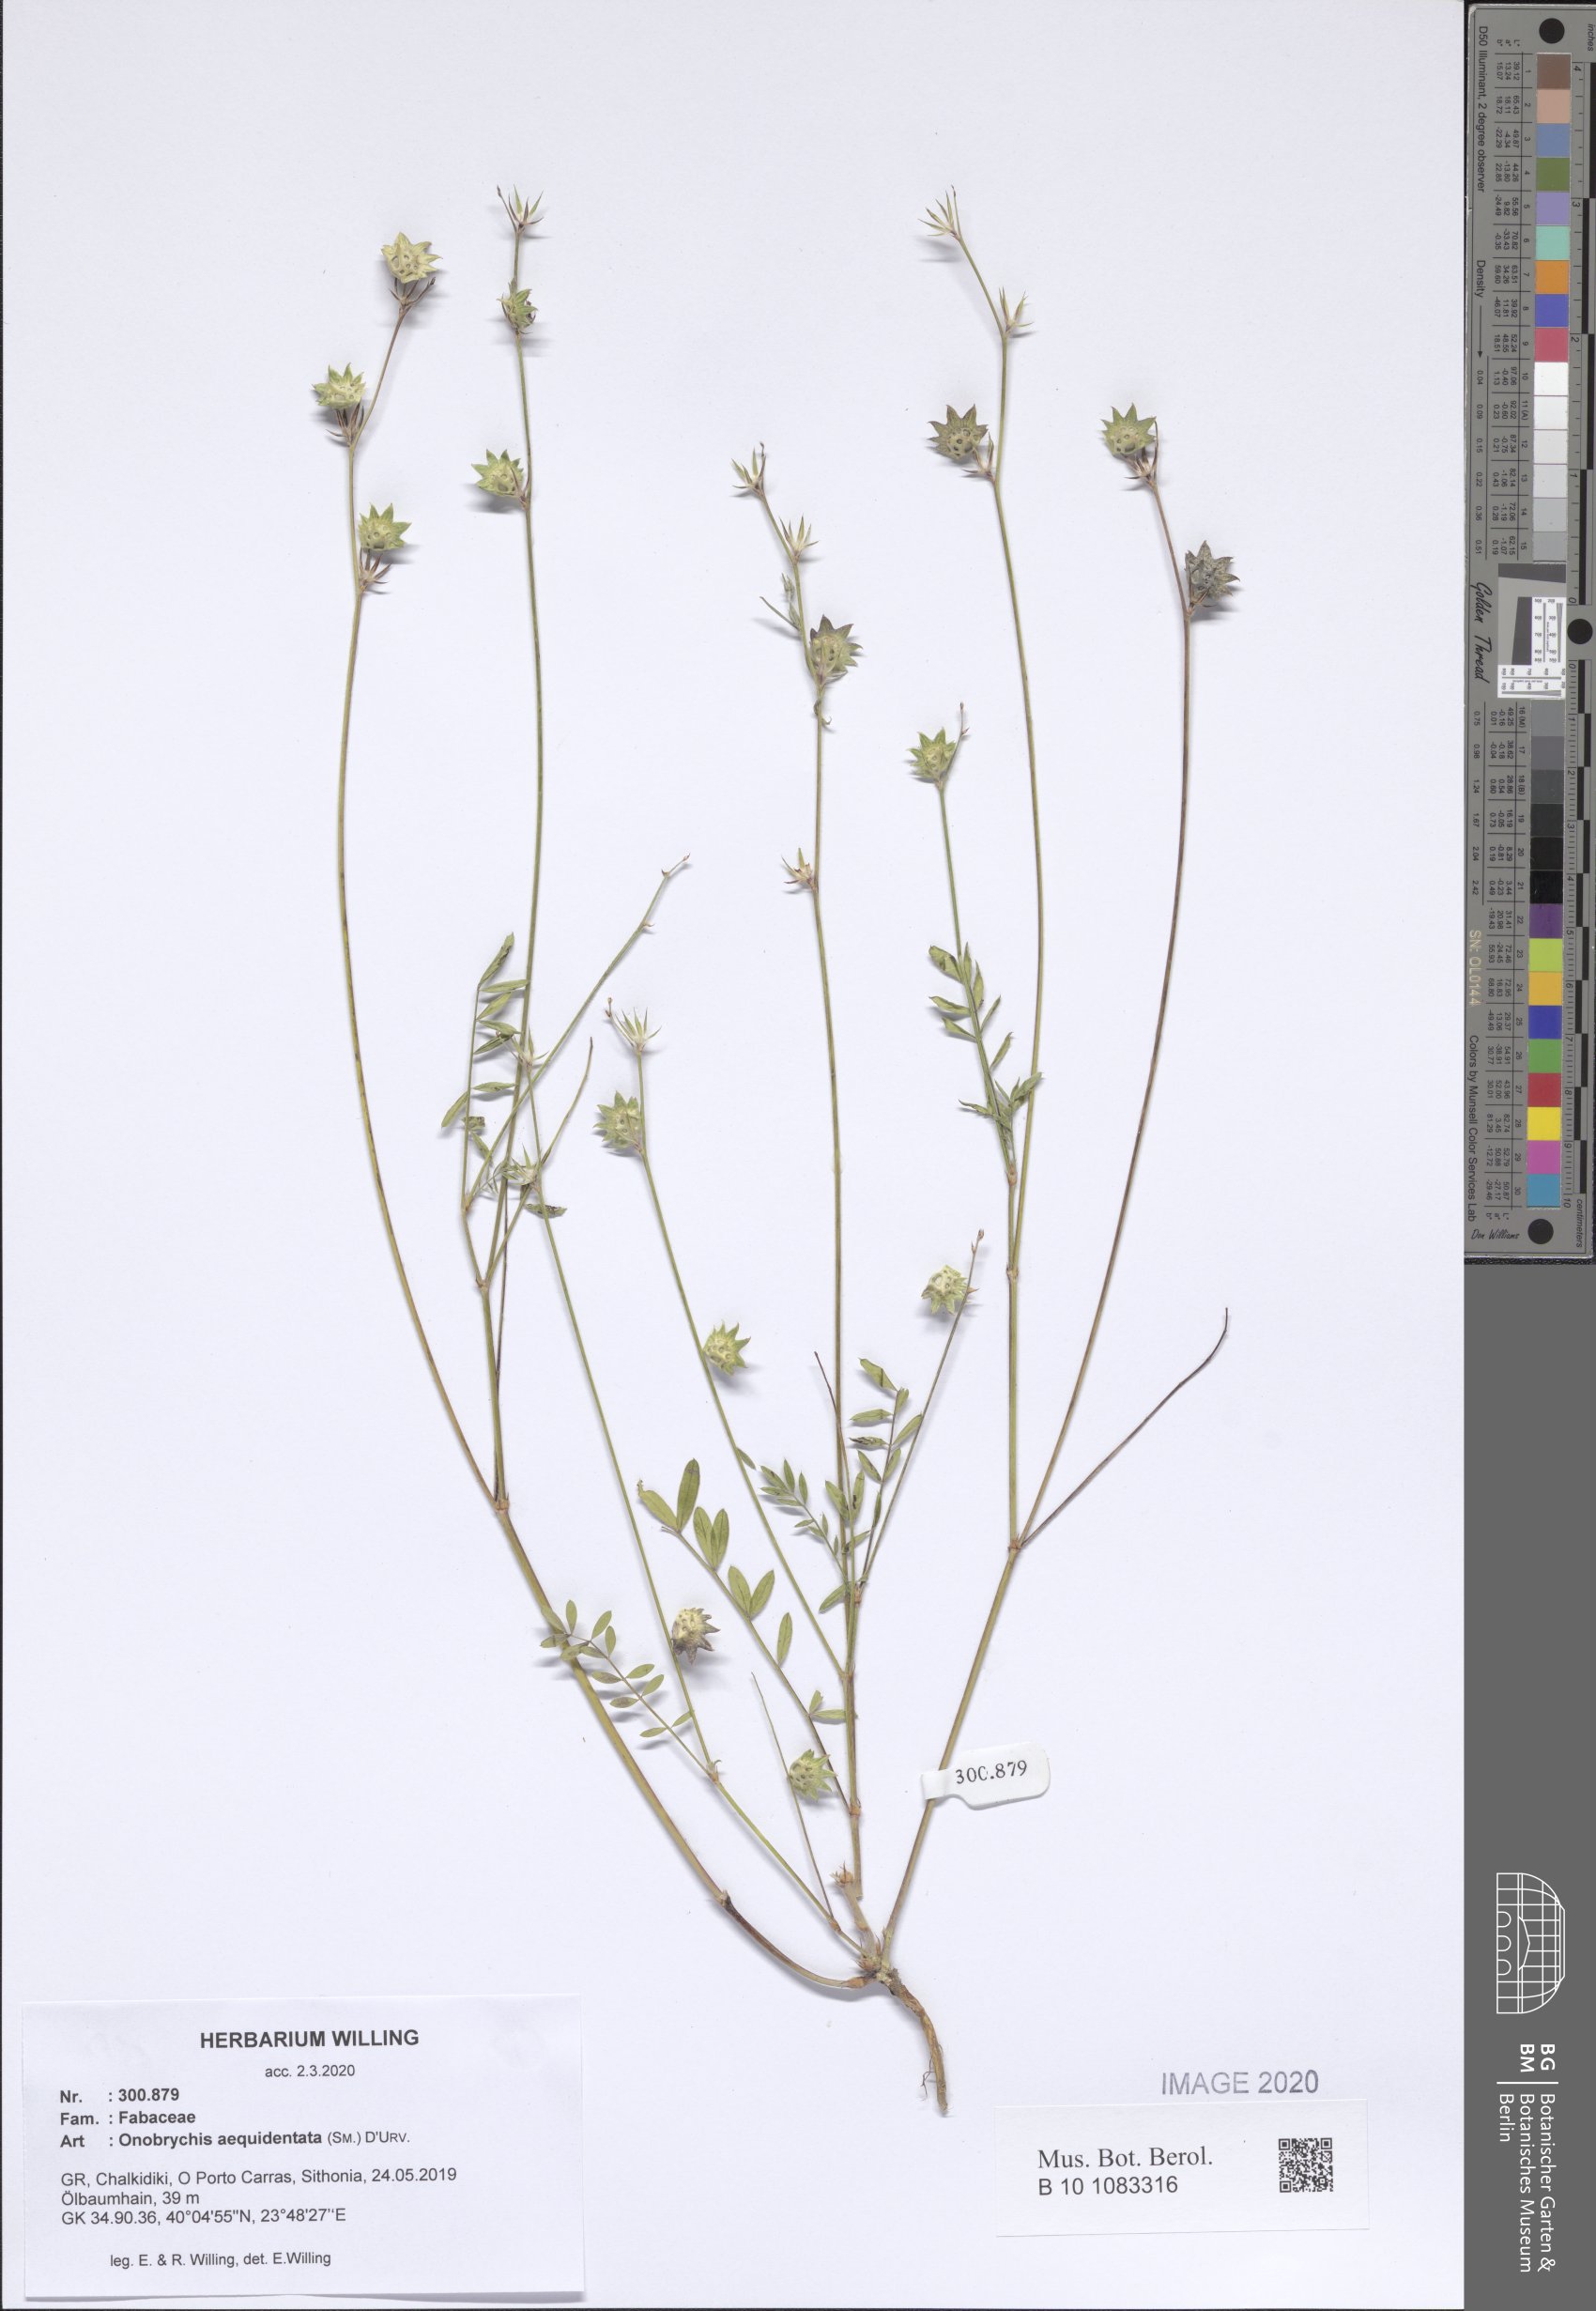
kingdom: Plantae
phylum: Tracheophyta
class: Magnoliopsida
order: Fabales
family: Fabaceae
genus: Onobrychis
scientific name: Onobrychis aequidentata
